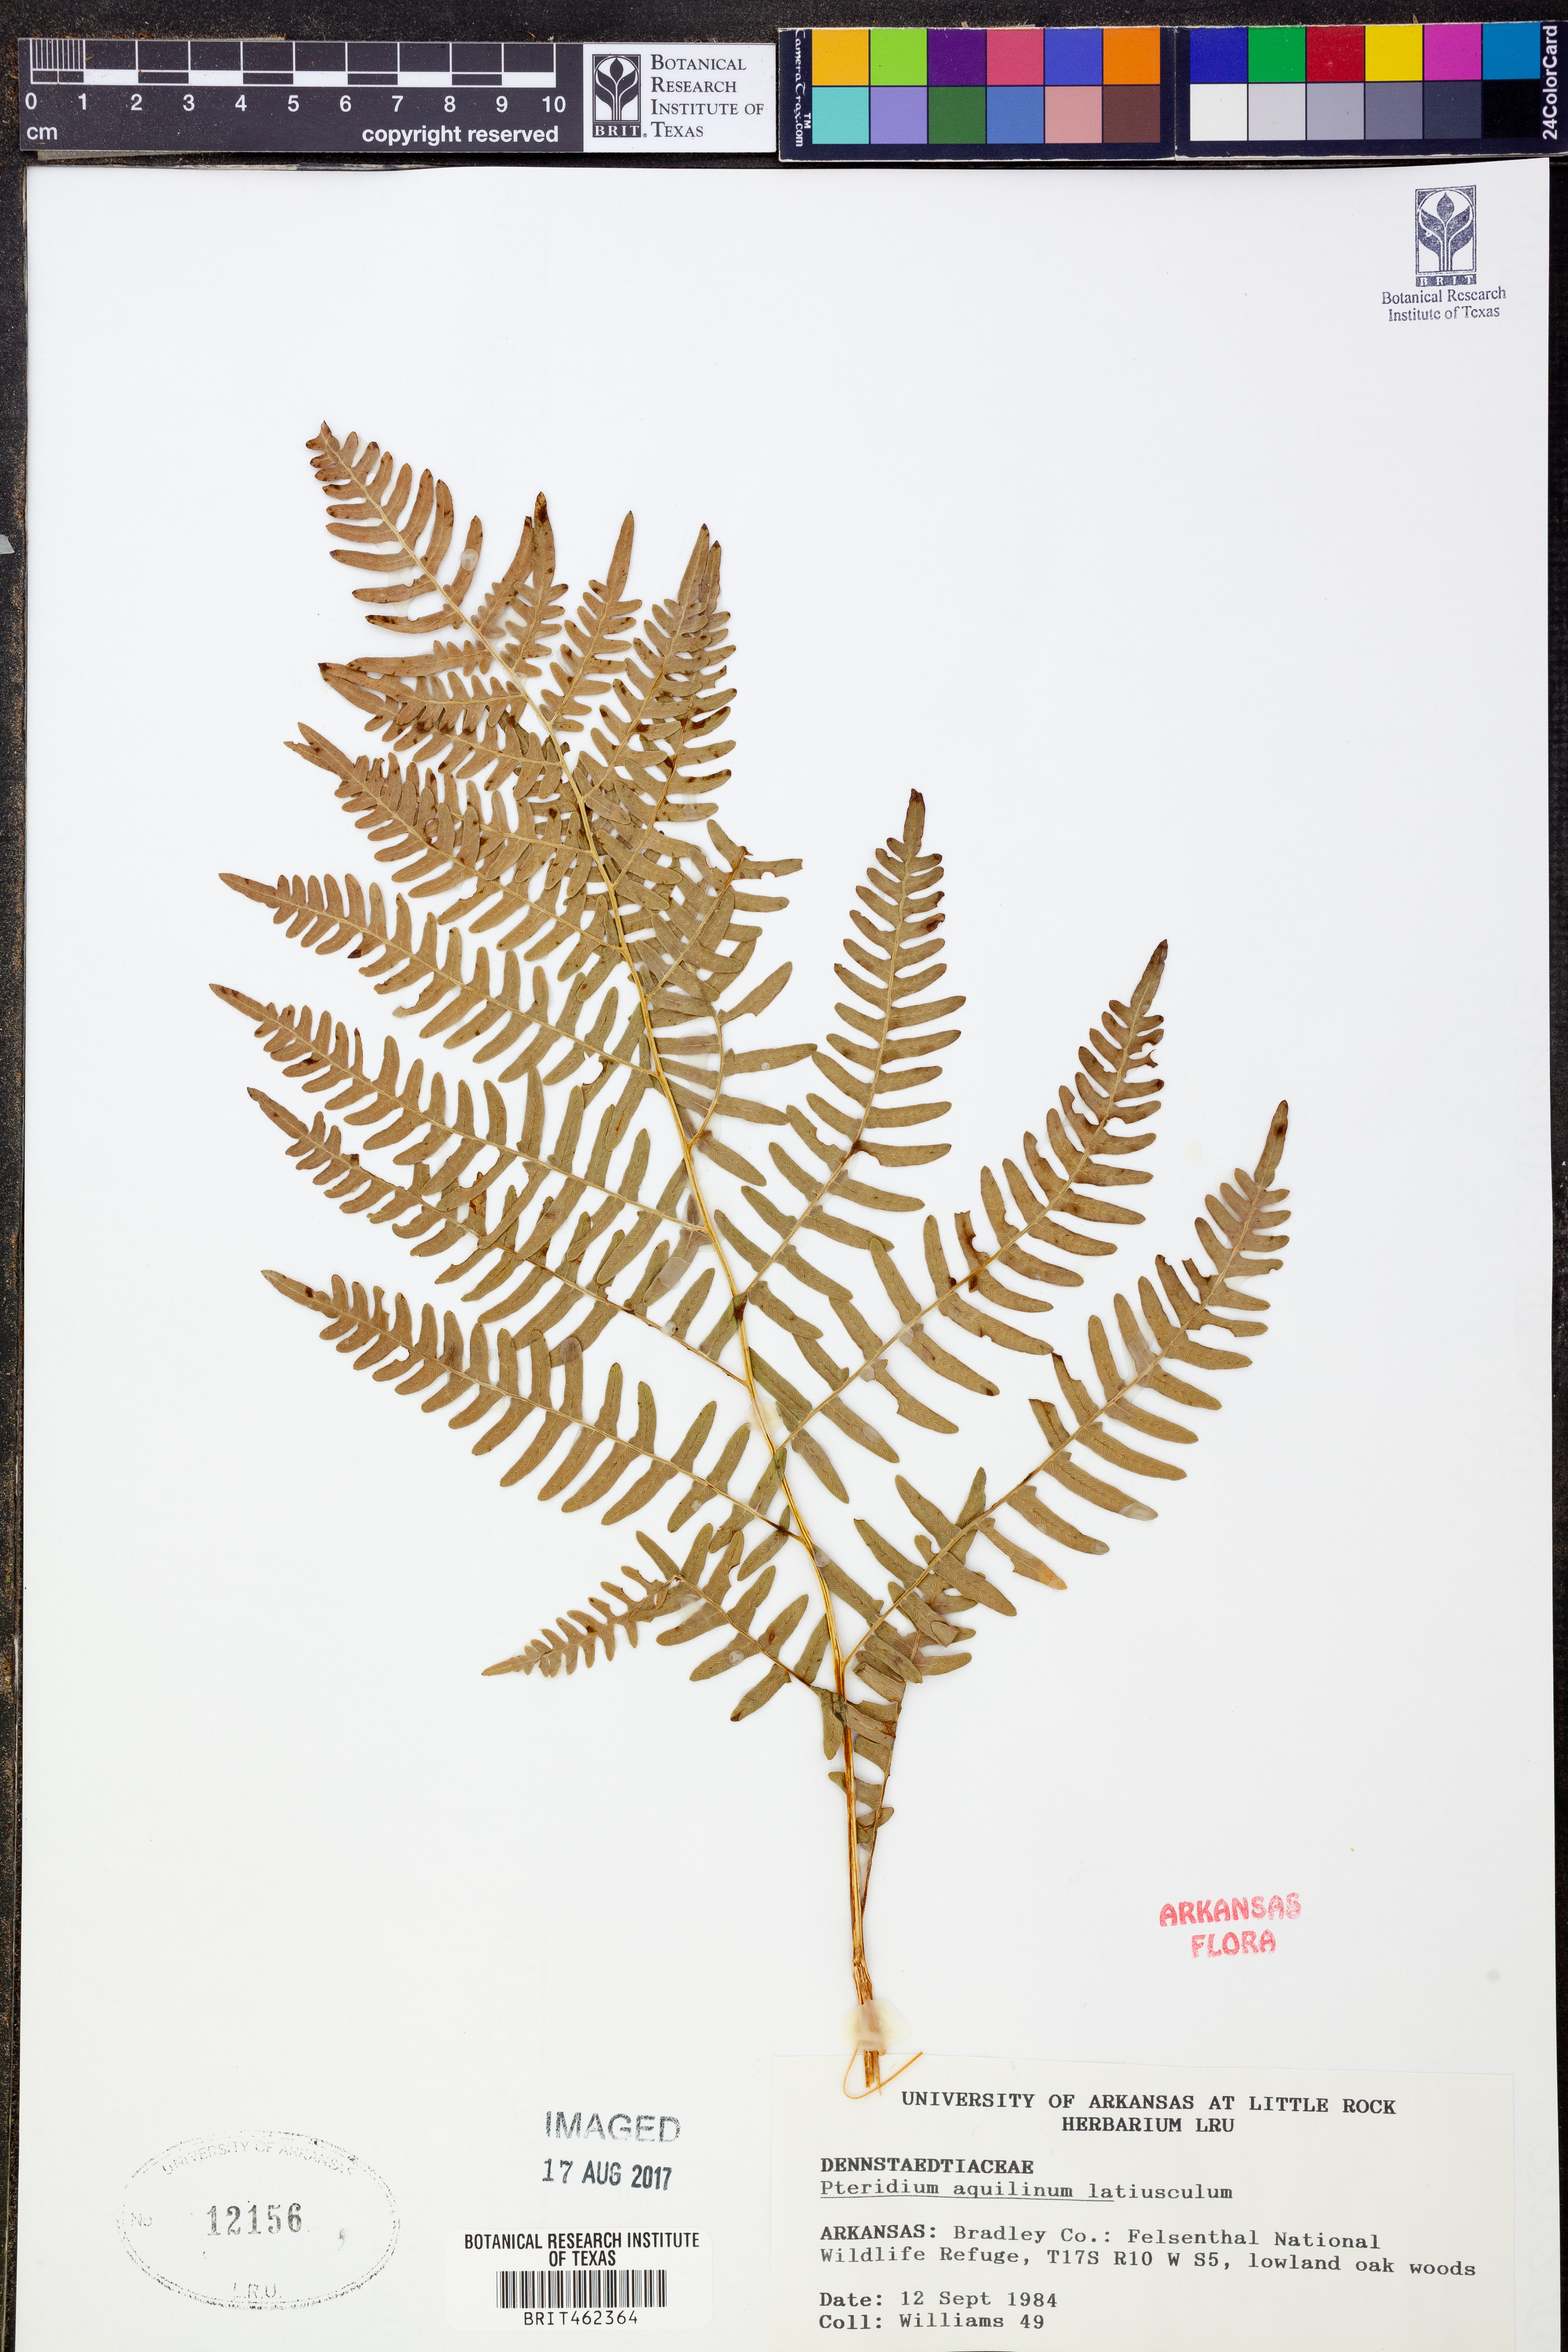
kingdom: Plantae
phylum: Tracheophyta
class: Polypodiopsida
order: Polypodiales
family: Dennstaedtiaceae
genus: Pteridium
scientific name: Pteridium aquilinum
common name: Bracken
